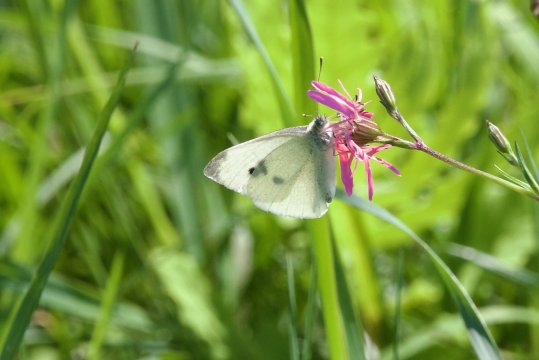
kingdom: Animalia
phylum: Arthropoda
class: Insecta
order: Lepidoptera
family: Pieridae
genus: Pieris
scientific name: Pieris rapae
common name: Cabbage White
